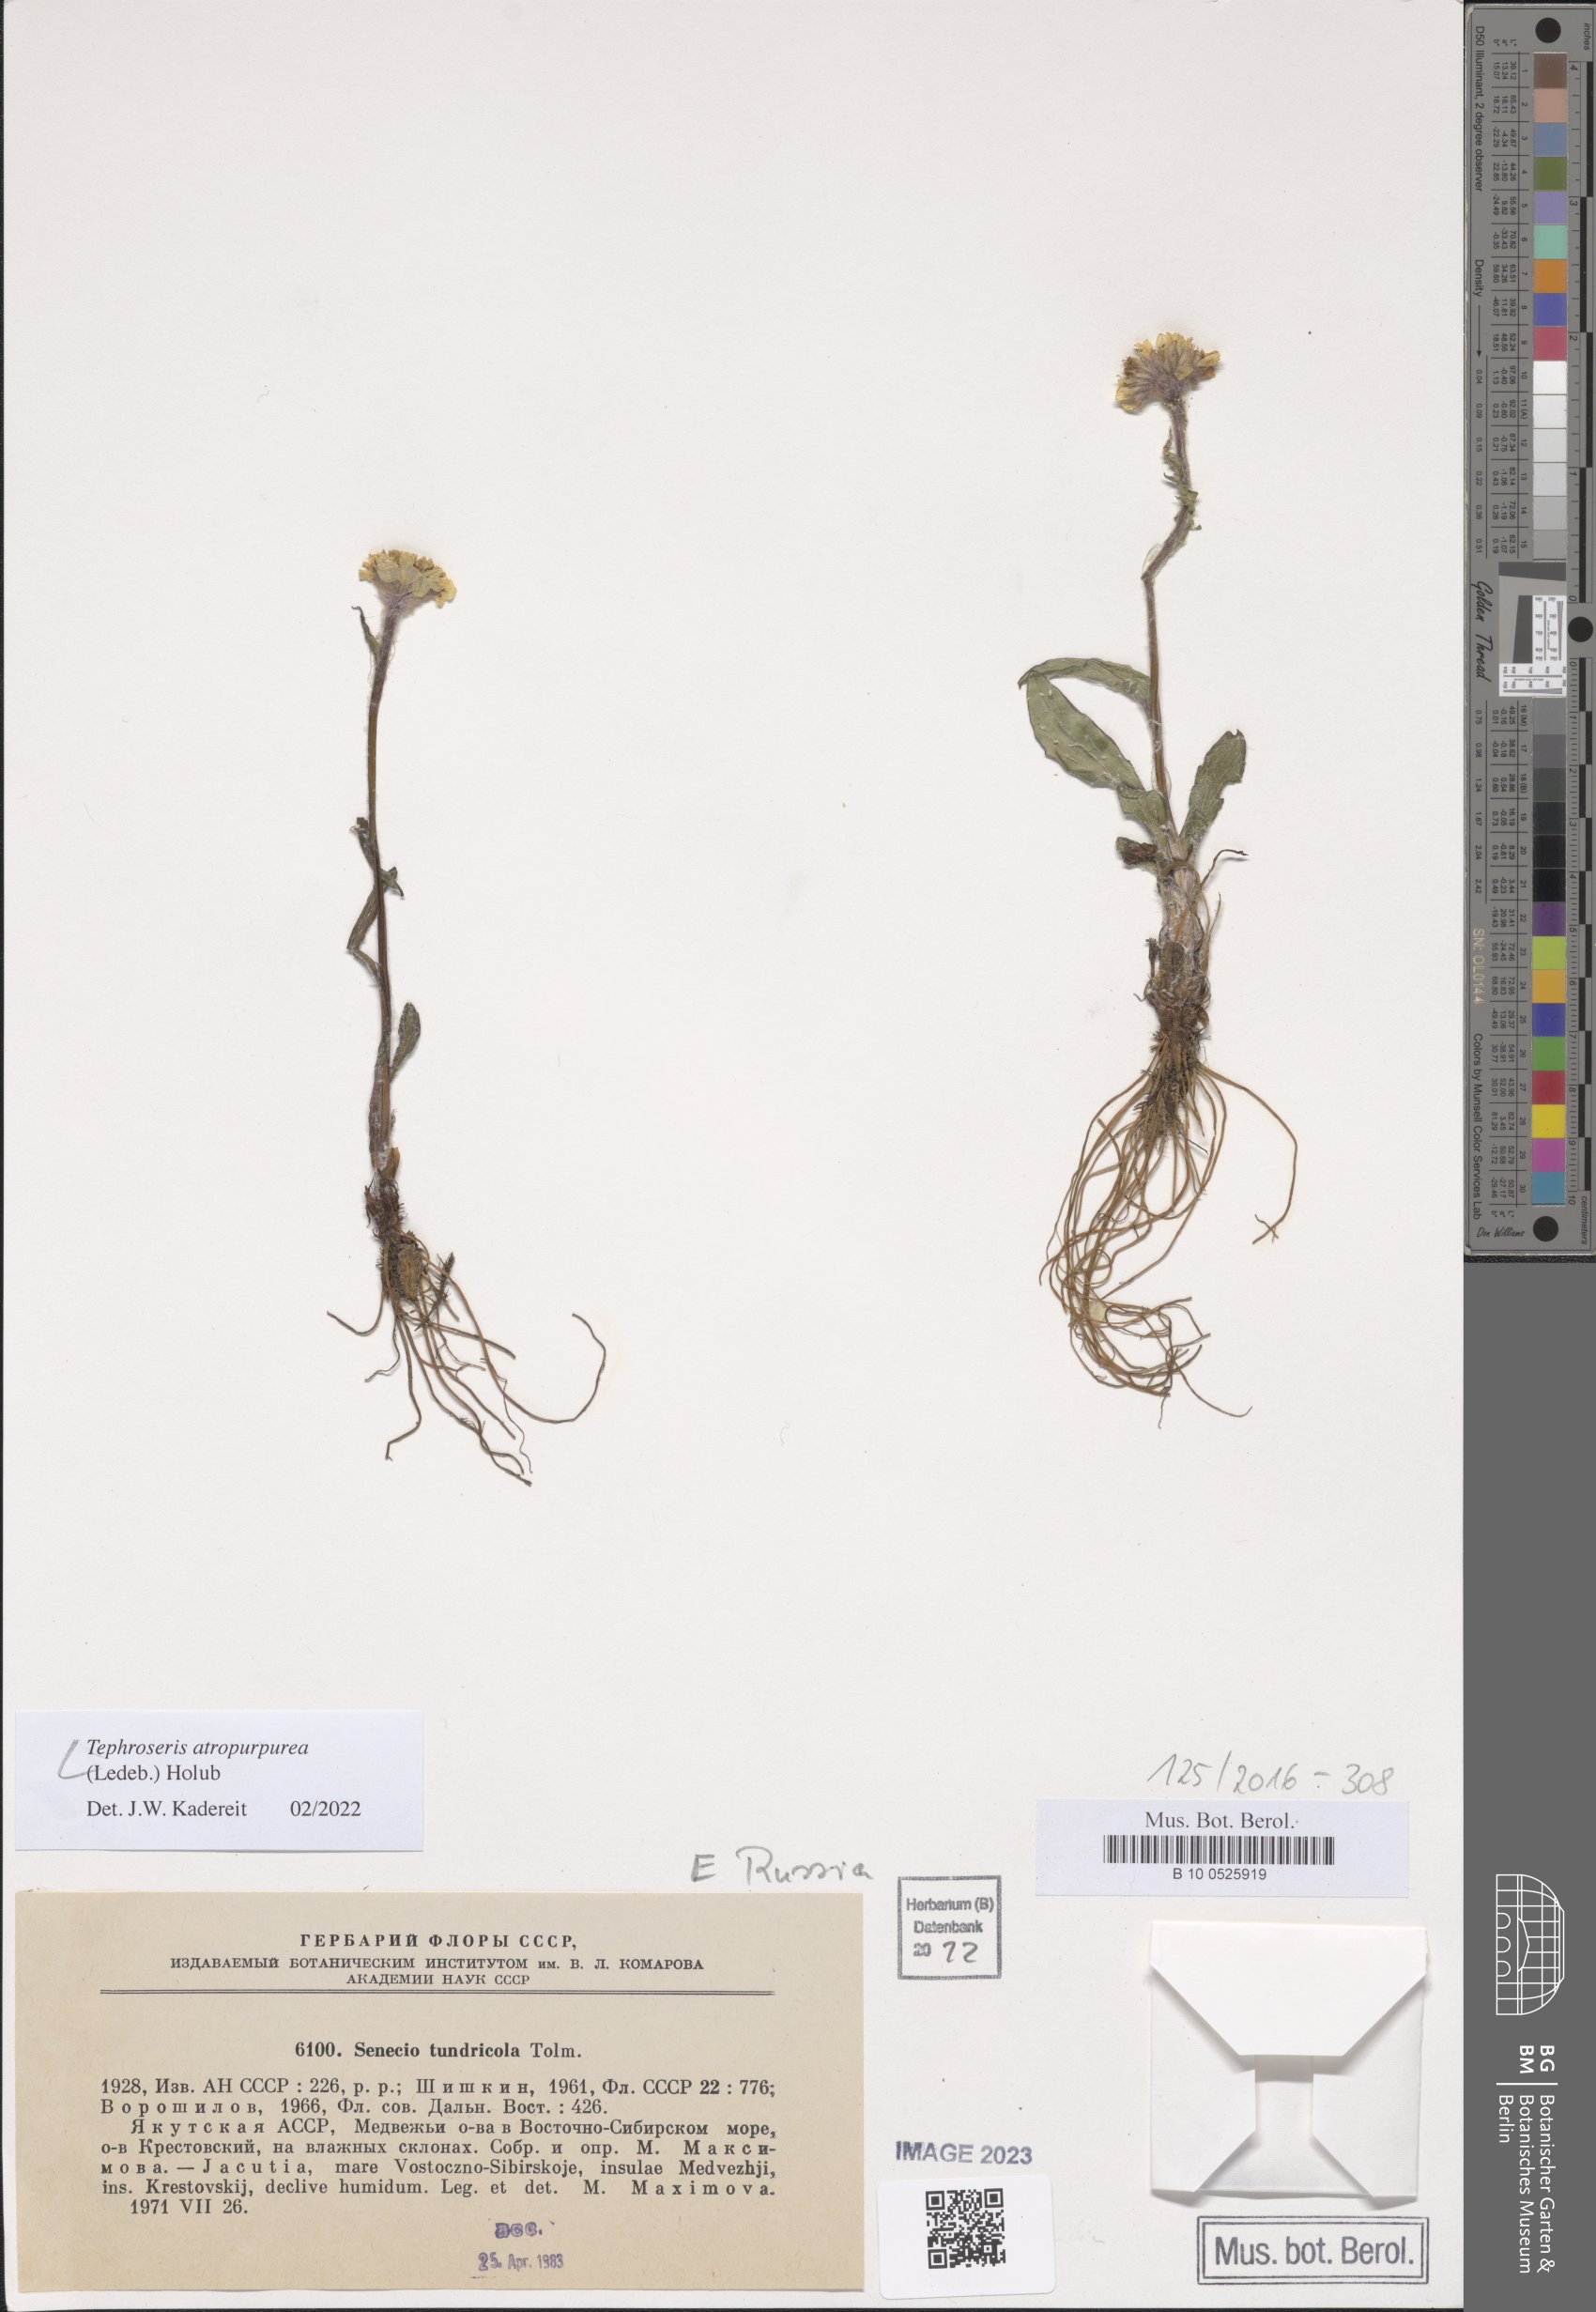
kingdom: Plantae
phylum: Tracheophyta
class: Magnoliopsida
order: Asterales
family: Asteraceae
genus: Tephroseris
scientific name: Tephroseris integrifolia
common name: Field fleawort
